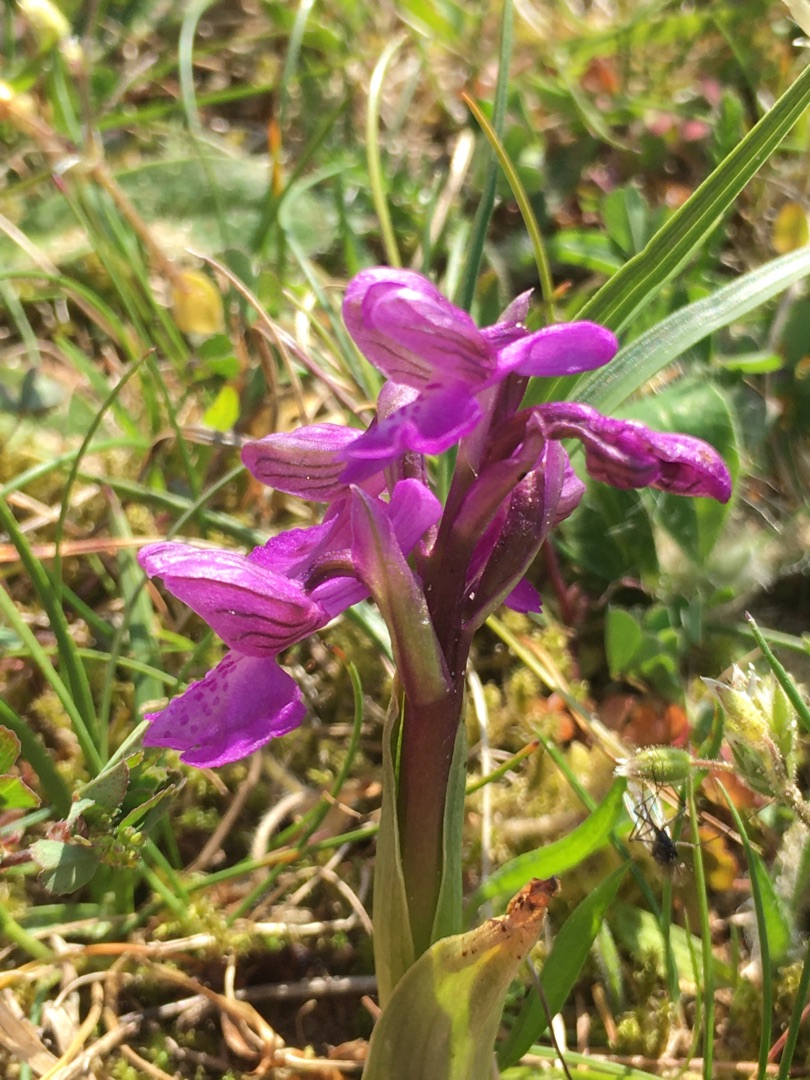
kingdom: Plantae
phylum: Tracheophyta
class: Liliopsida
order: Asparagales
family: Orchidaceae
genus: Anacamptis
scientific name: Anacamptis morio
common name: Salepgøgeurt
